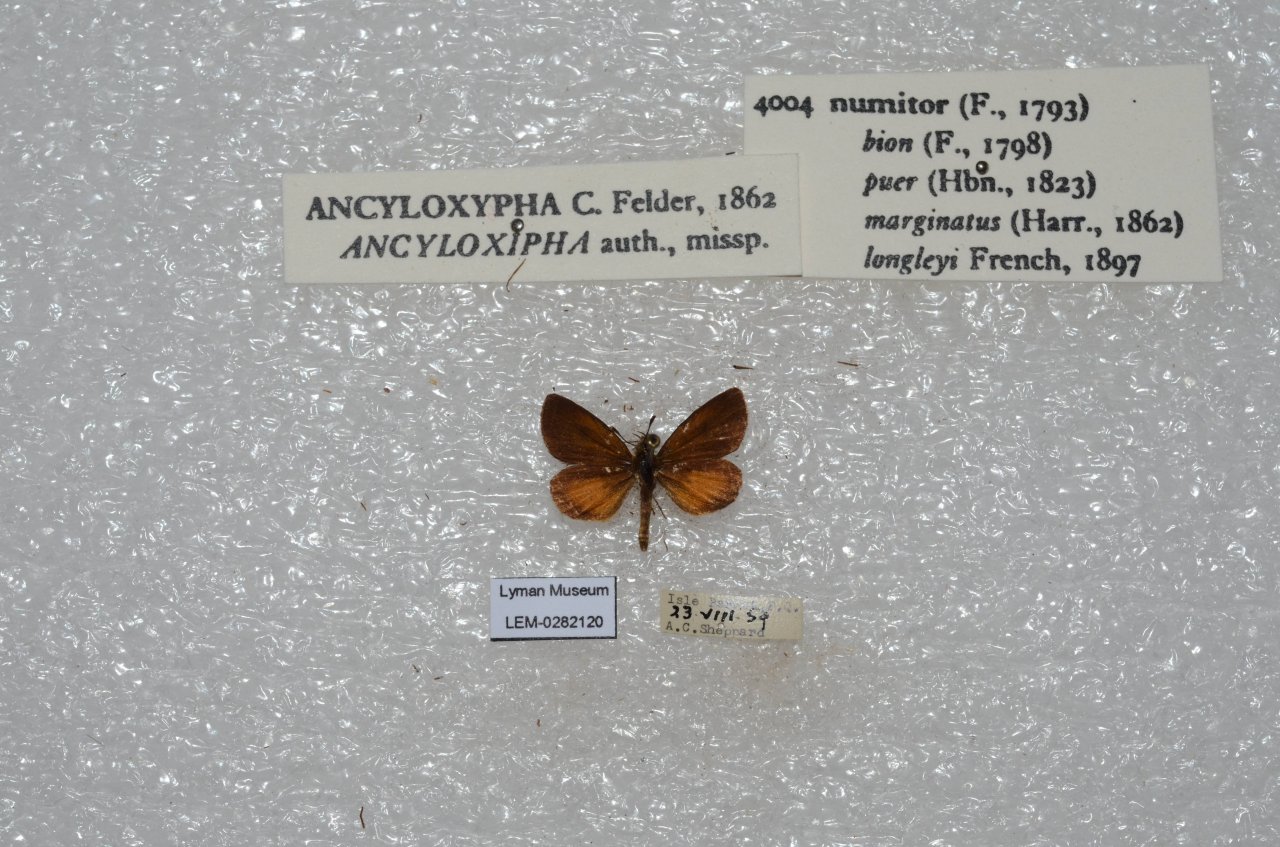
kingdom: Animalia
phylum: Arthropoda
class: Insecta
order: Lepidoptera
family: Hesperiidae
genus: Ancyloxypha
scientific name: Ancyloxypha numitor
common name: Least Skipper
